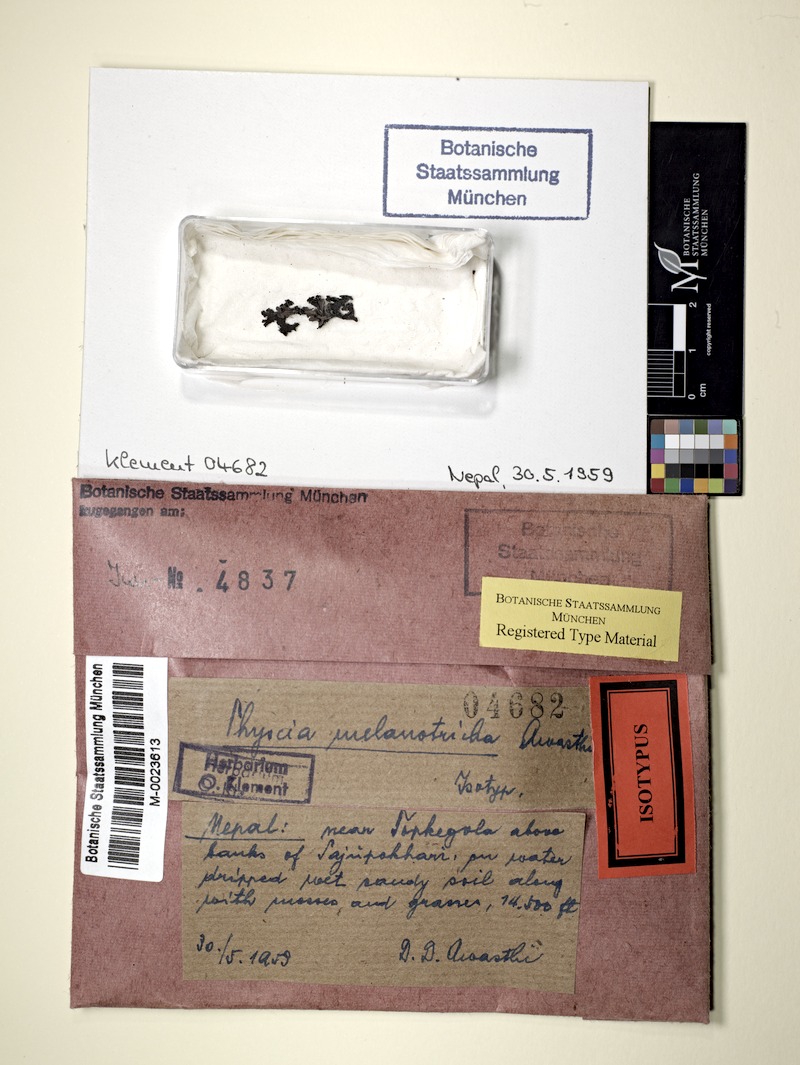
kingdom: Fungi
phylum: Ascomycota
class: Lecanoromycetes
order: Caliciales
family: Physciaceae
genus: Awasthia
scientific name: Awasthia melanotricha
